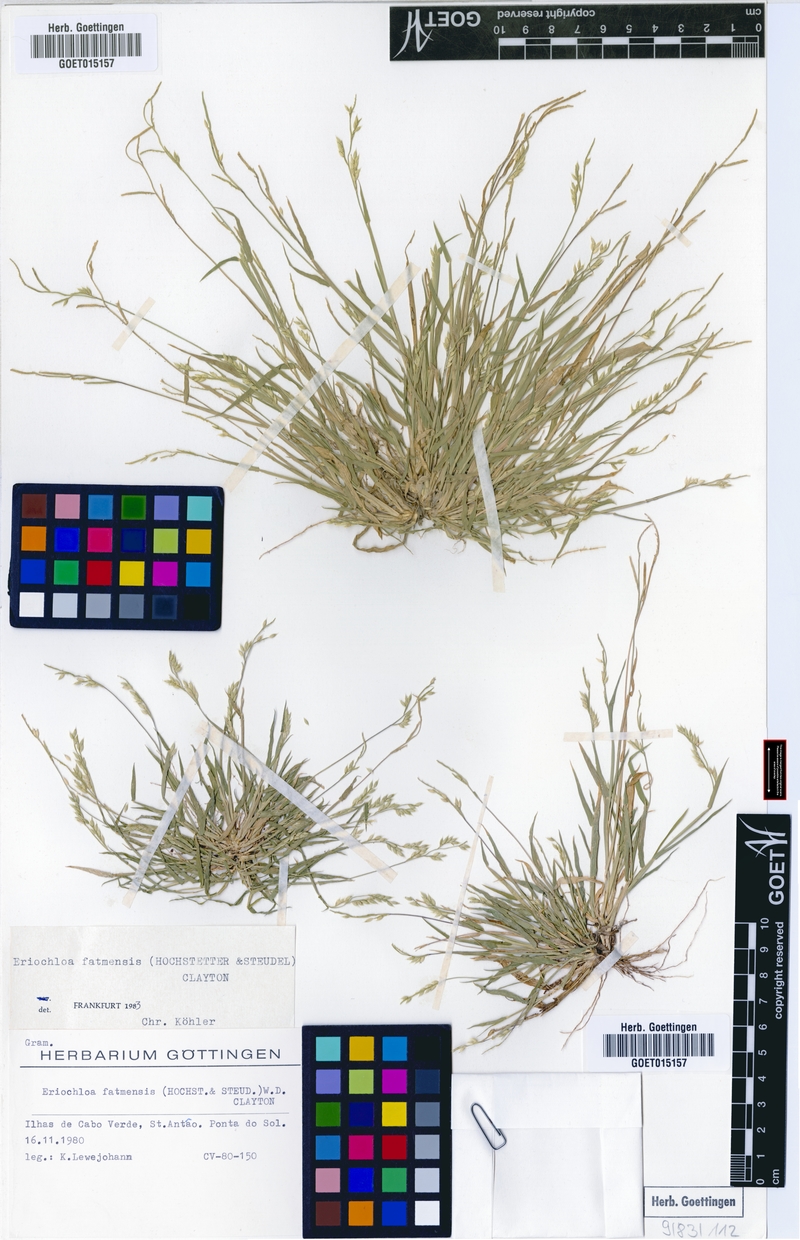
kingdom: Plantae
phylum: Tracheophyta
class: Liliopsida
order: Poales
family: Poaceae
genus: Eriochloa
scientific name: Eriochloa barbatus
